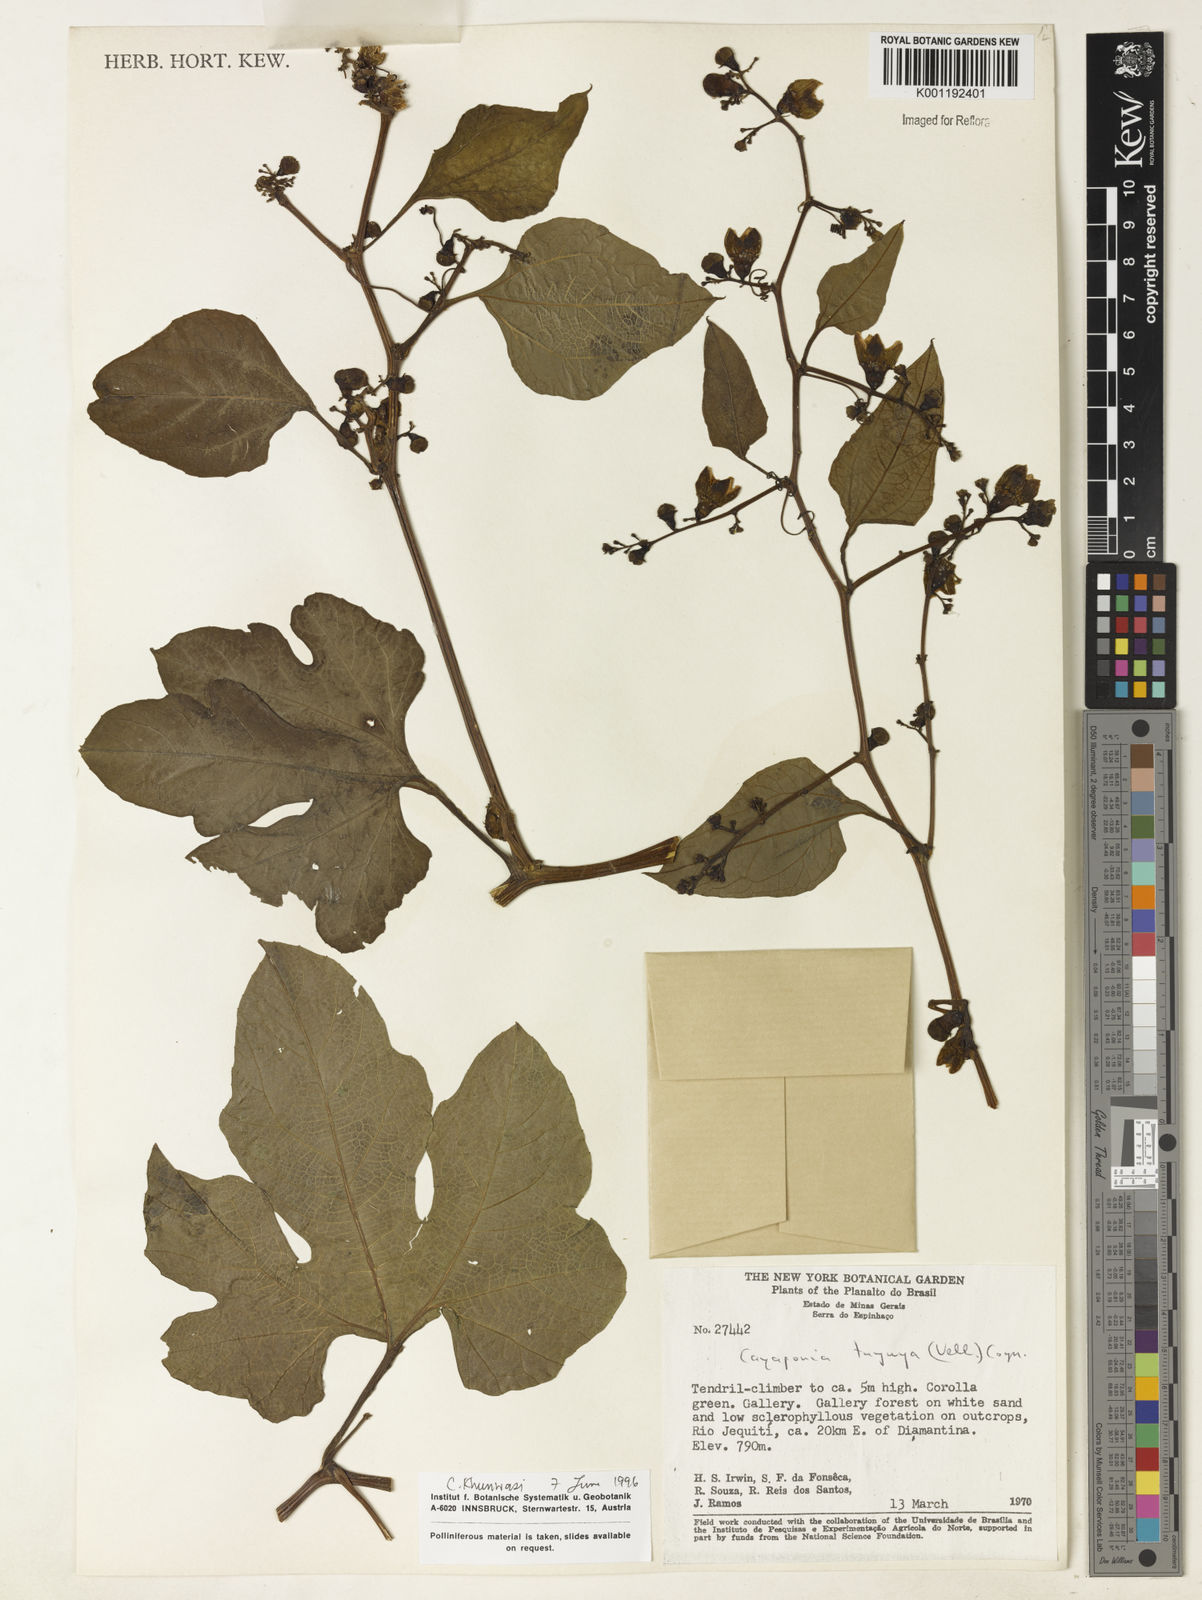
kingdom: Plantae
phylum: Tracheophyta
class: Magnoliopsida
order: Cucurbitales
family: Cucurbitaceae
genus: Cayaponia
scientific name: Cayaponia tayuya
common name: Tayuya
